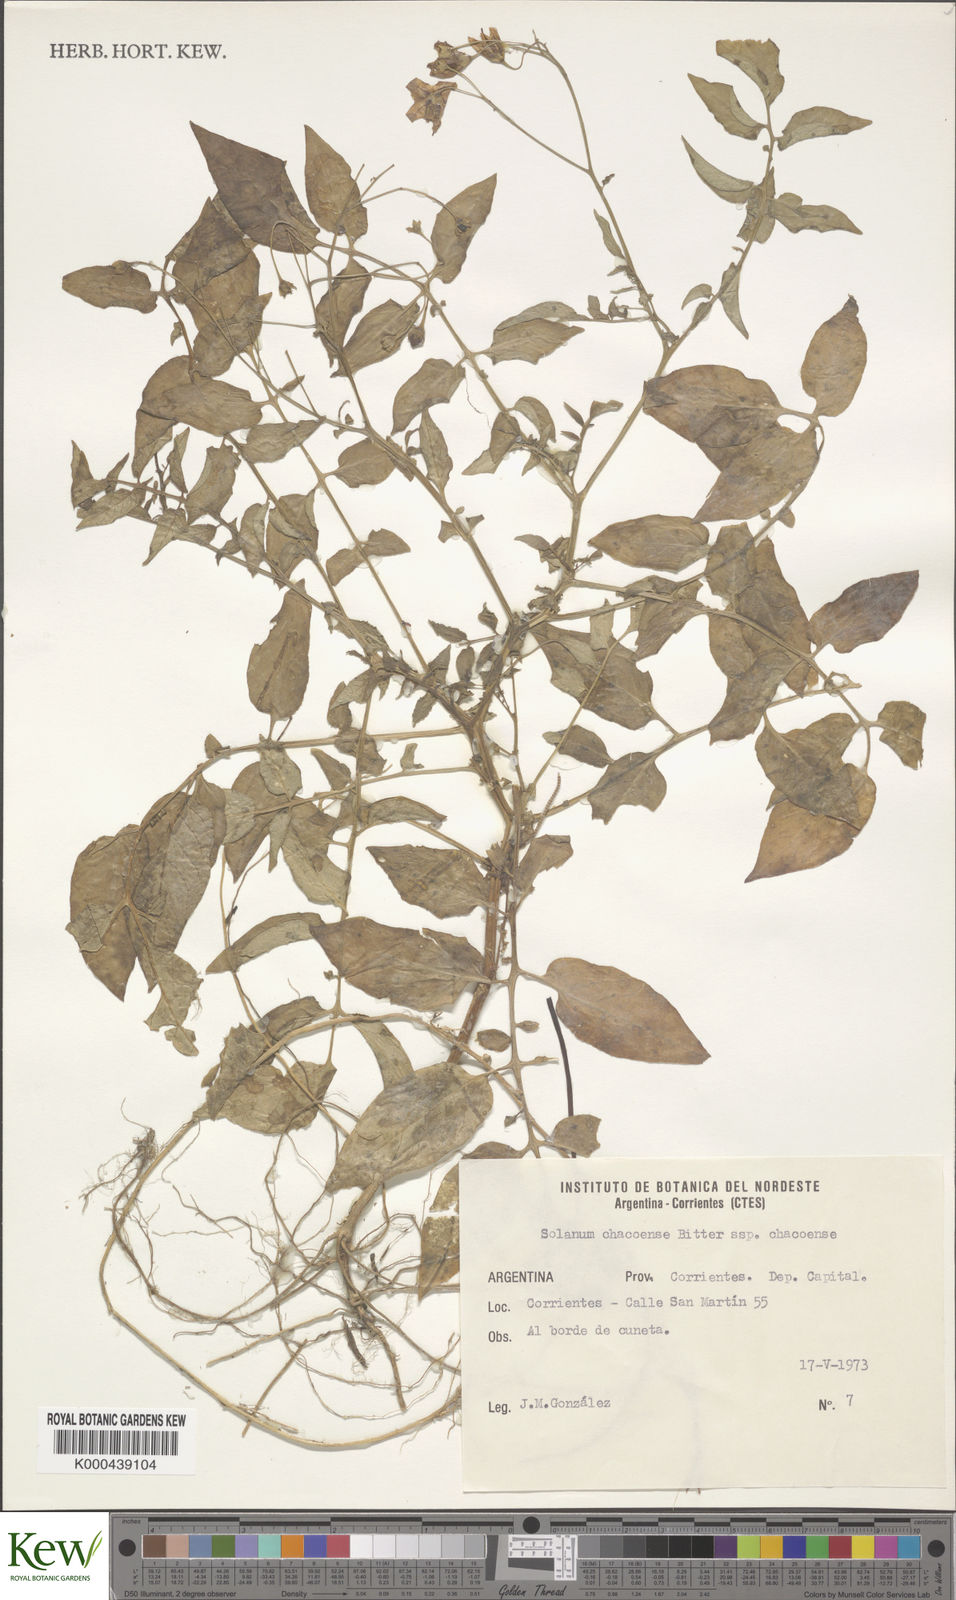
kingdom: Plantae
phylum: Tracheophyta
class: Magnoliopsida
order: Solanales
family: Solanaceae
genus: Solanum
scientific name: Solanum chacoense
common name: Chaco potato
